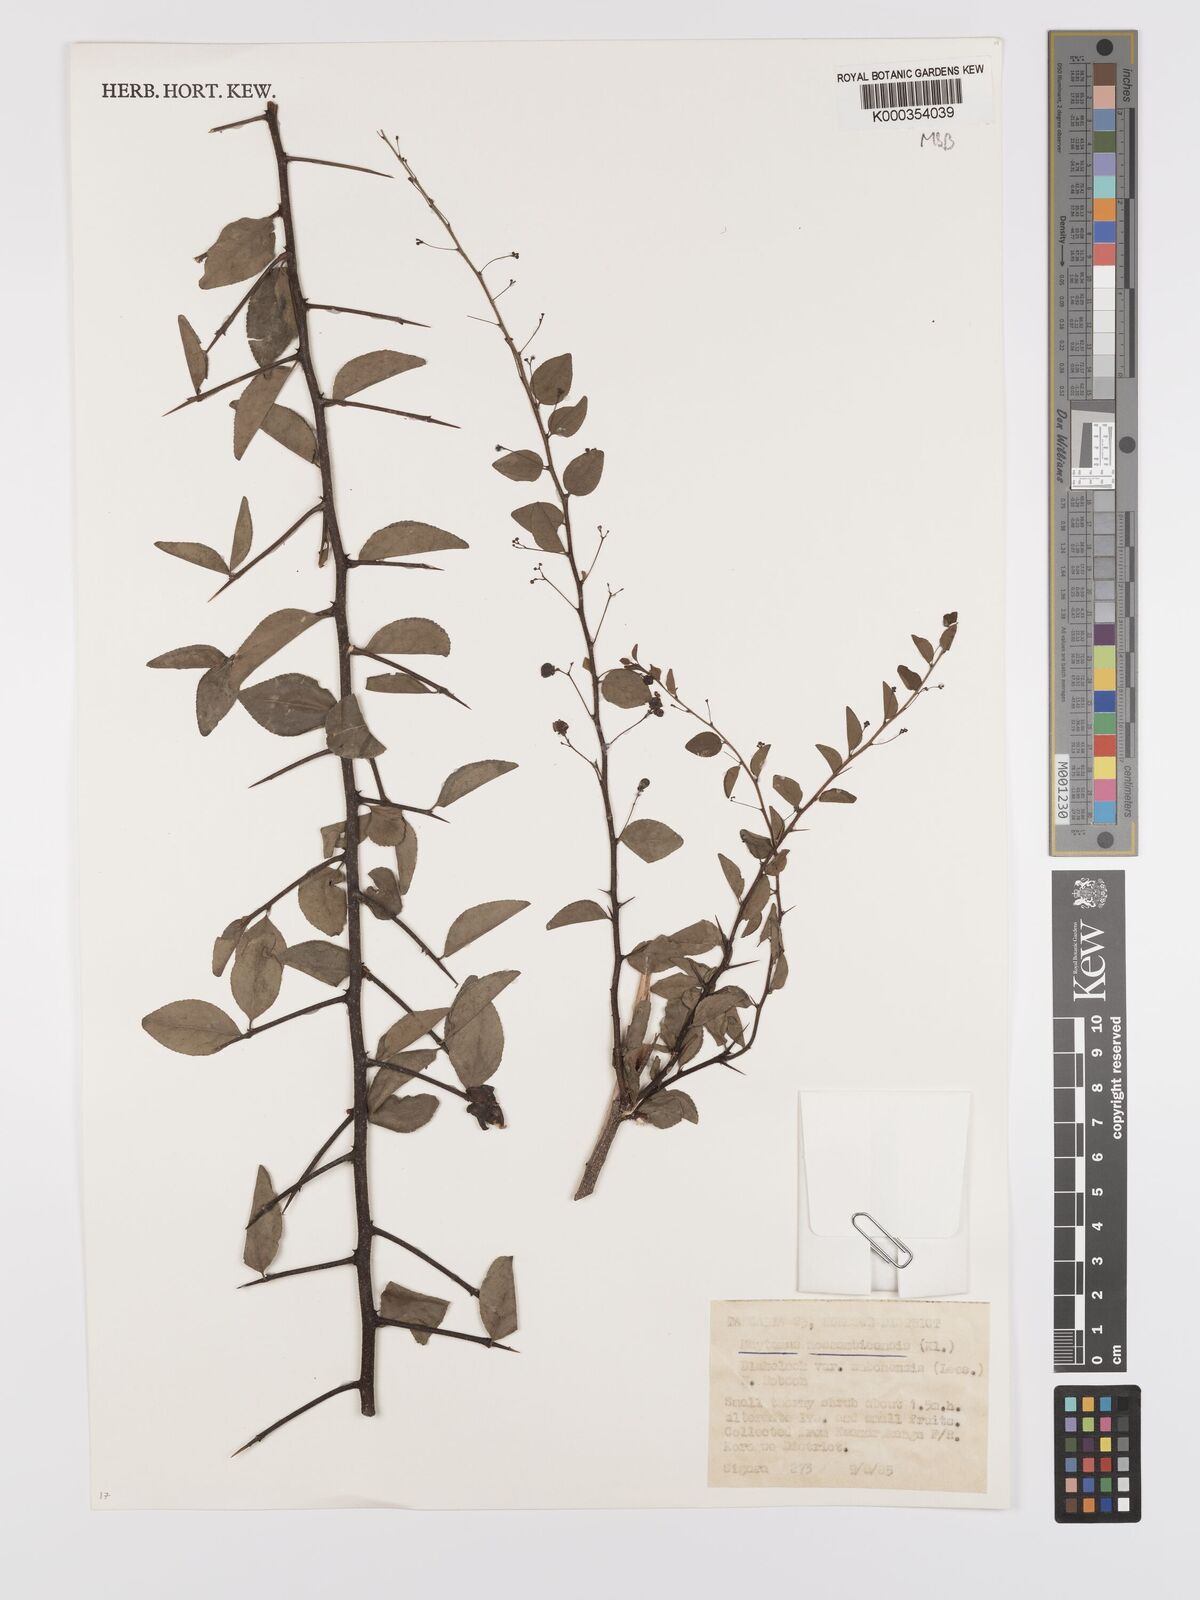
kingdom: Plantae
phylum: Tracheophyta
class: Magnoliopsida
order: Celastrales
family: Celastraceae
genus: Gymnosporia
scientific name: Gymnosporia mossambicensis
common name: Black forest spike-thorn
